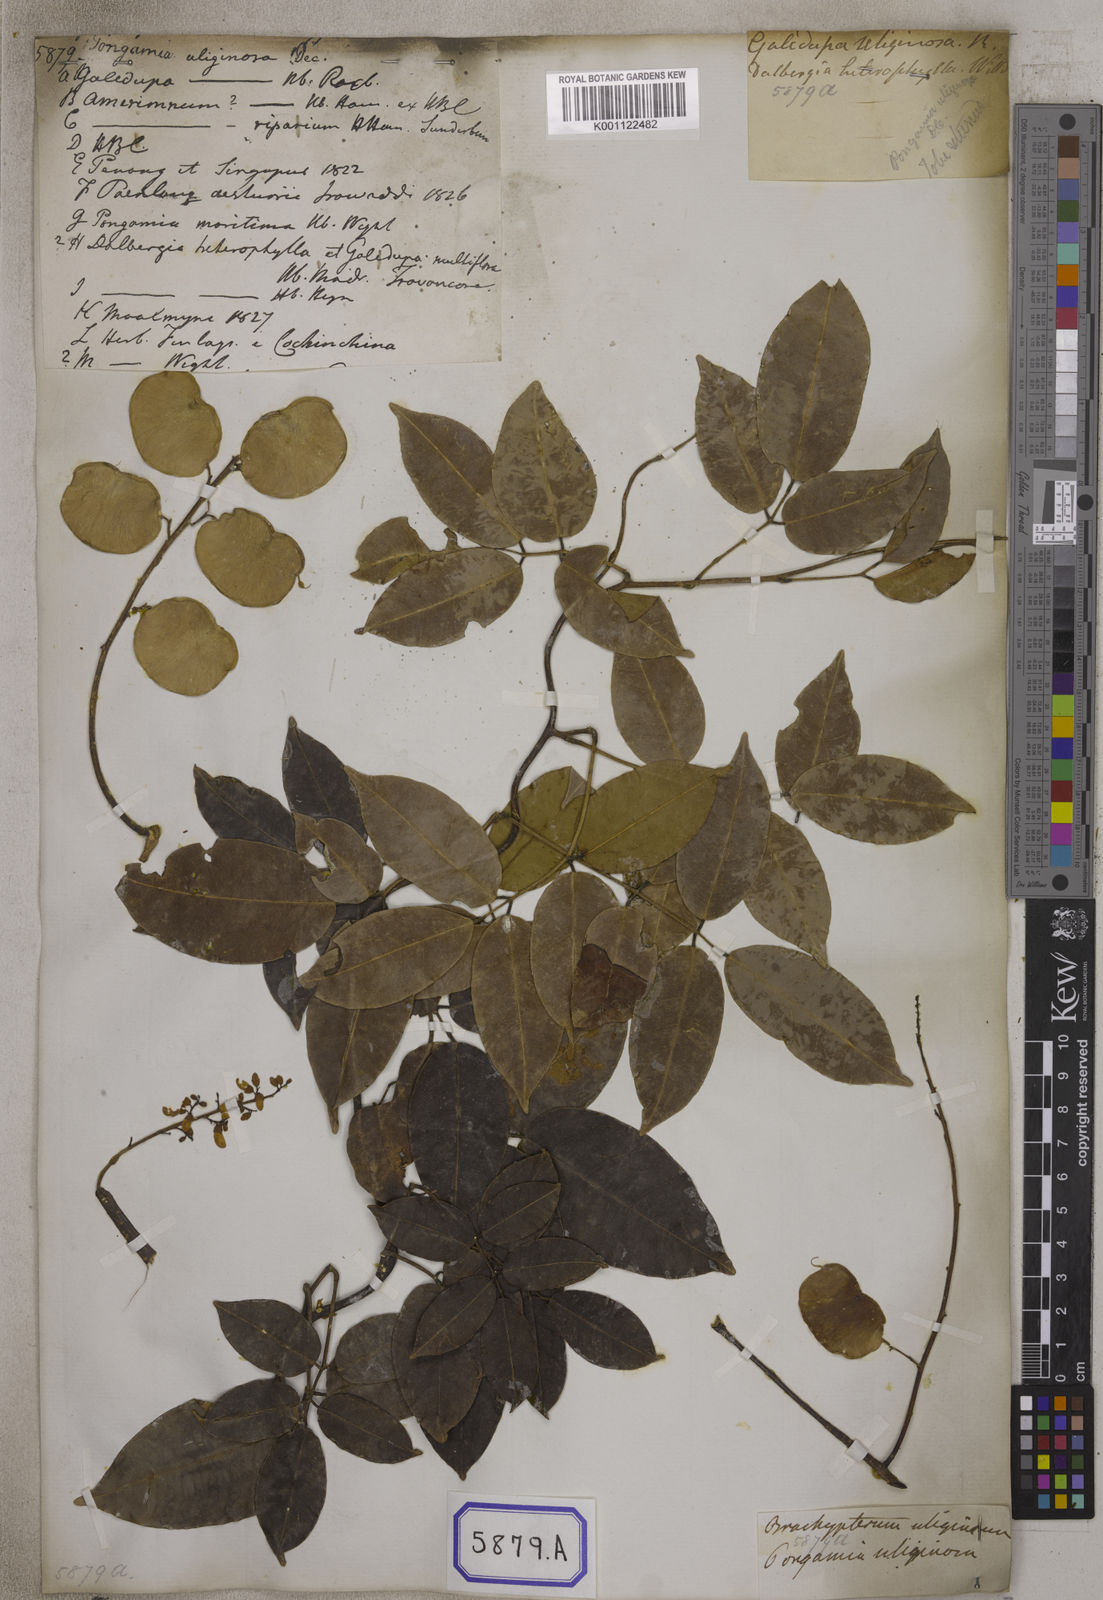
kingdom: Plantae
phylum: Tracheophyta
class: Magnoliopsida
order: Fabales
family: Fabaceae
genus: Derris
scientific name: Derris trifoliata
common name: Three-leaf derris
